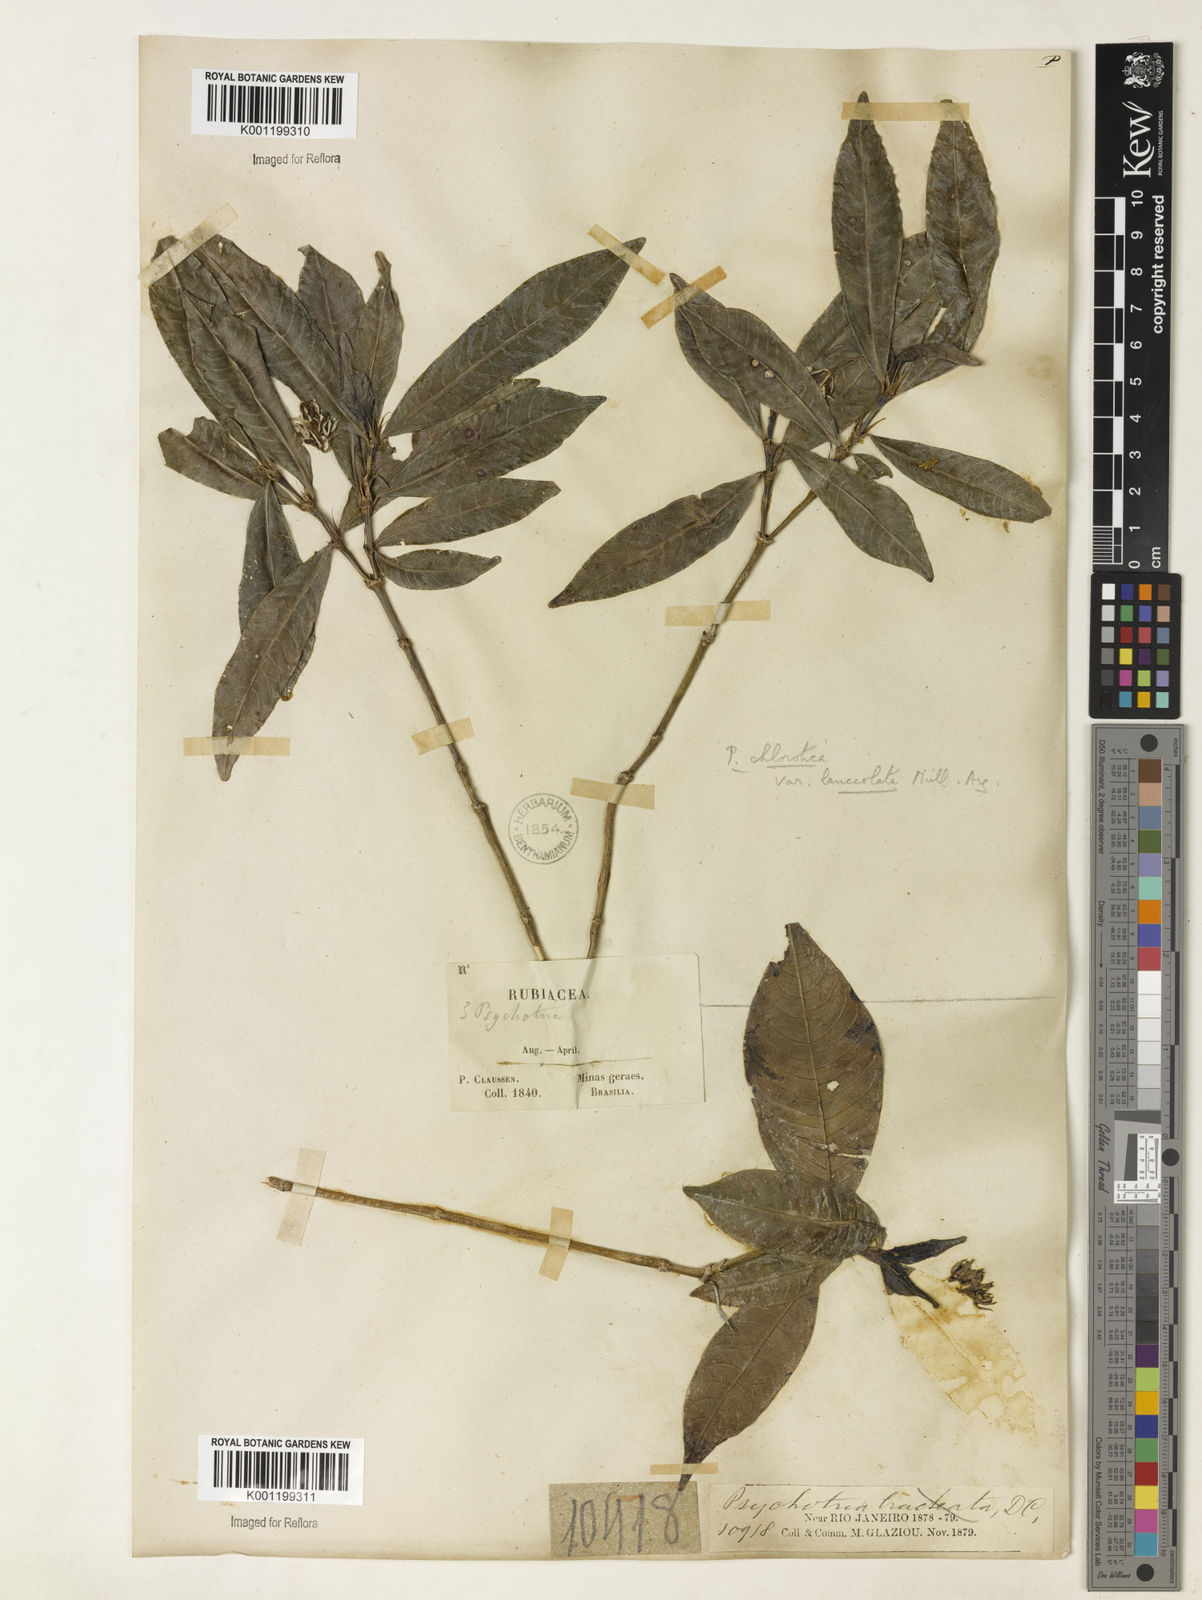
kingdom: Plantae
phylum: Tracheophyta
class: Magnoliopsida
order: Gentianales
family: Rubiaceae
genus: Palicourea
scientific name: Palicourea violacea
